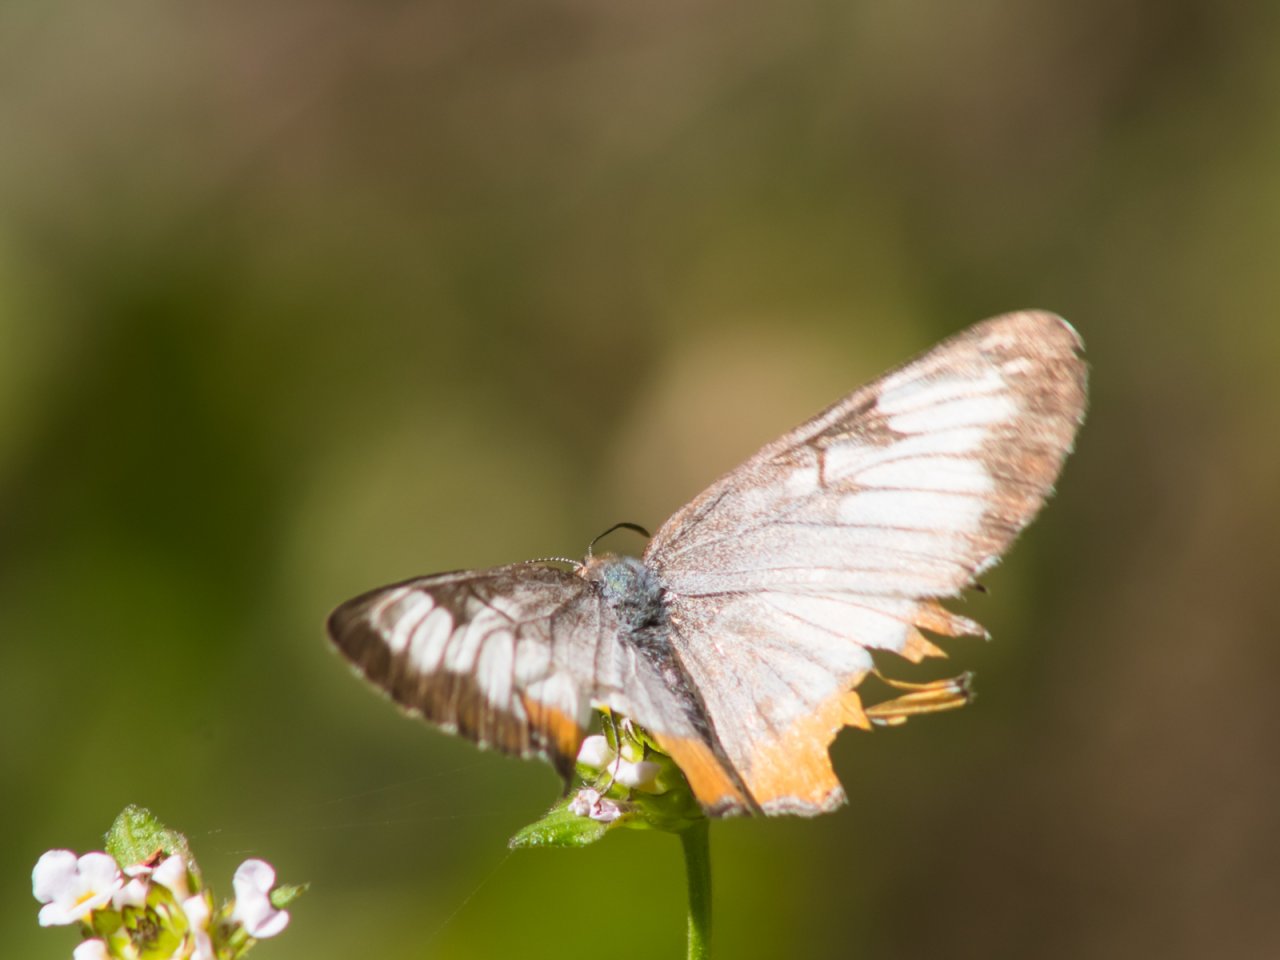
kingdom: Animalia
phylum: Arthropoda
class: Insecta
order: Lepidoptera
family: Nymphalidae
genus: Mestra
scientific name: Mestra amymone
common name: Common Mestra
